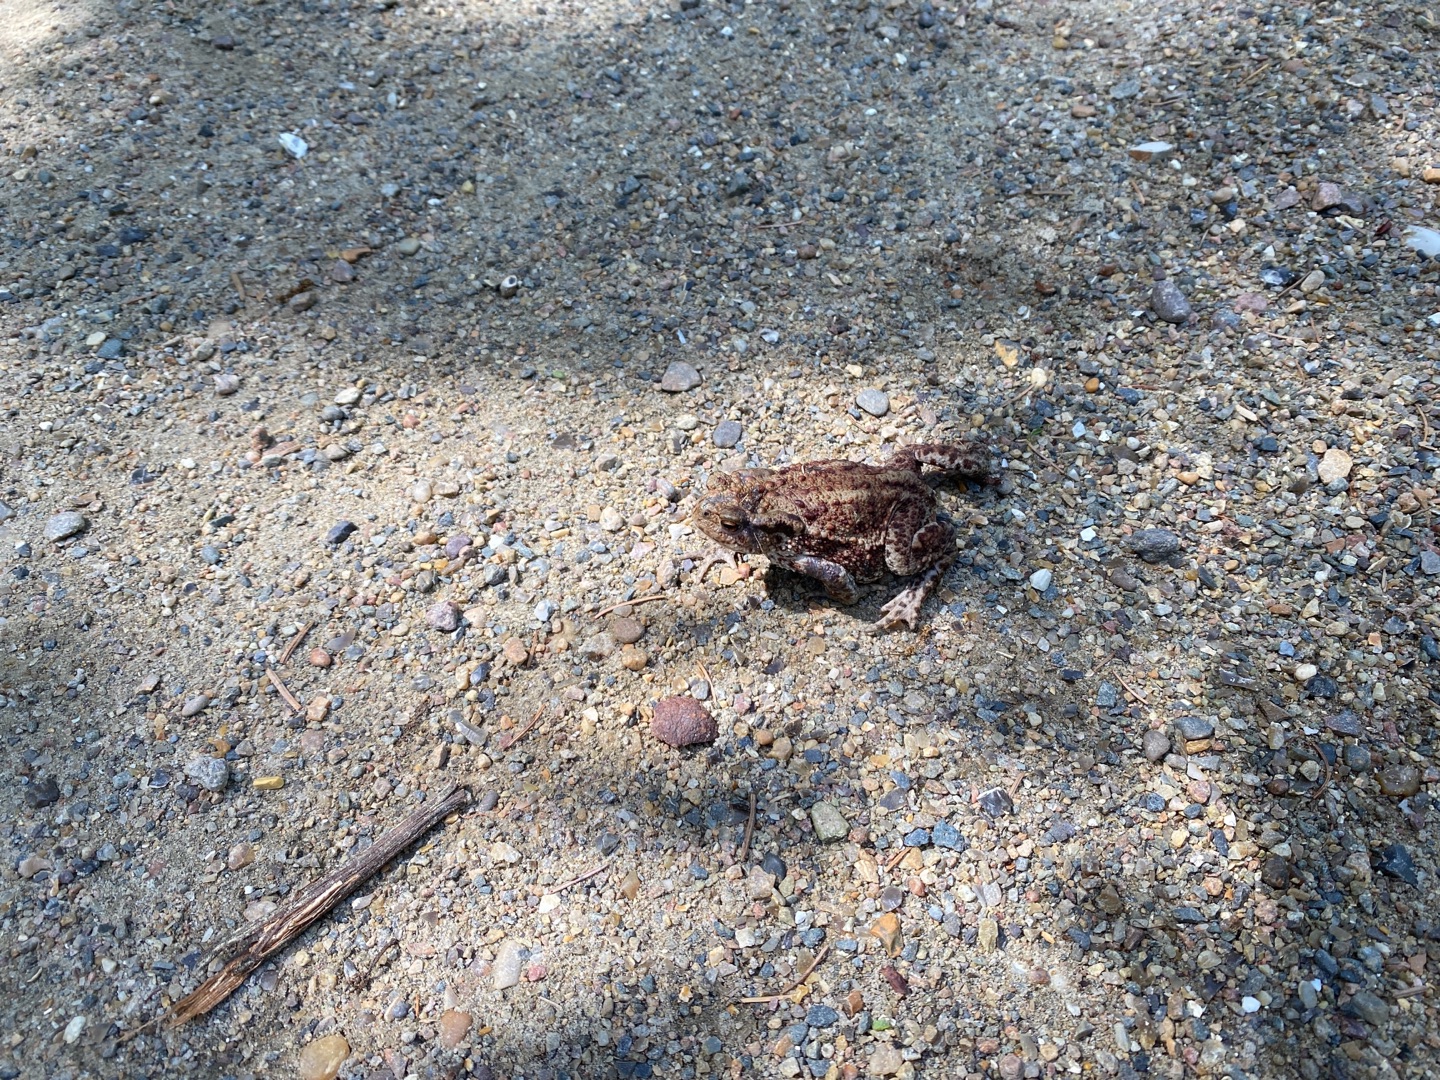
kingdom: Animalia
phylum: Chordata
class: Amphibia
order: Anura
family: Bufonidae
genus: Bufo
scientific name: Bufo bufo
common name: Skrubtudse
